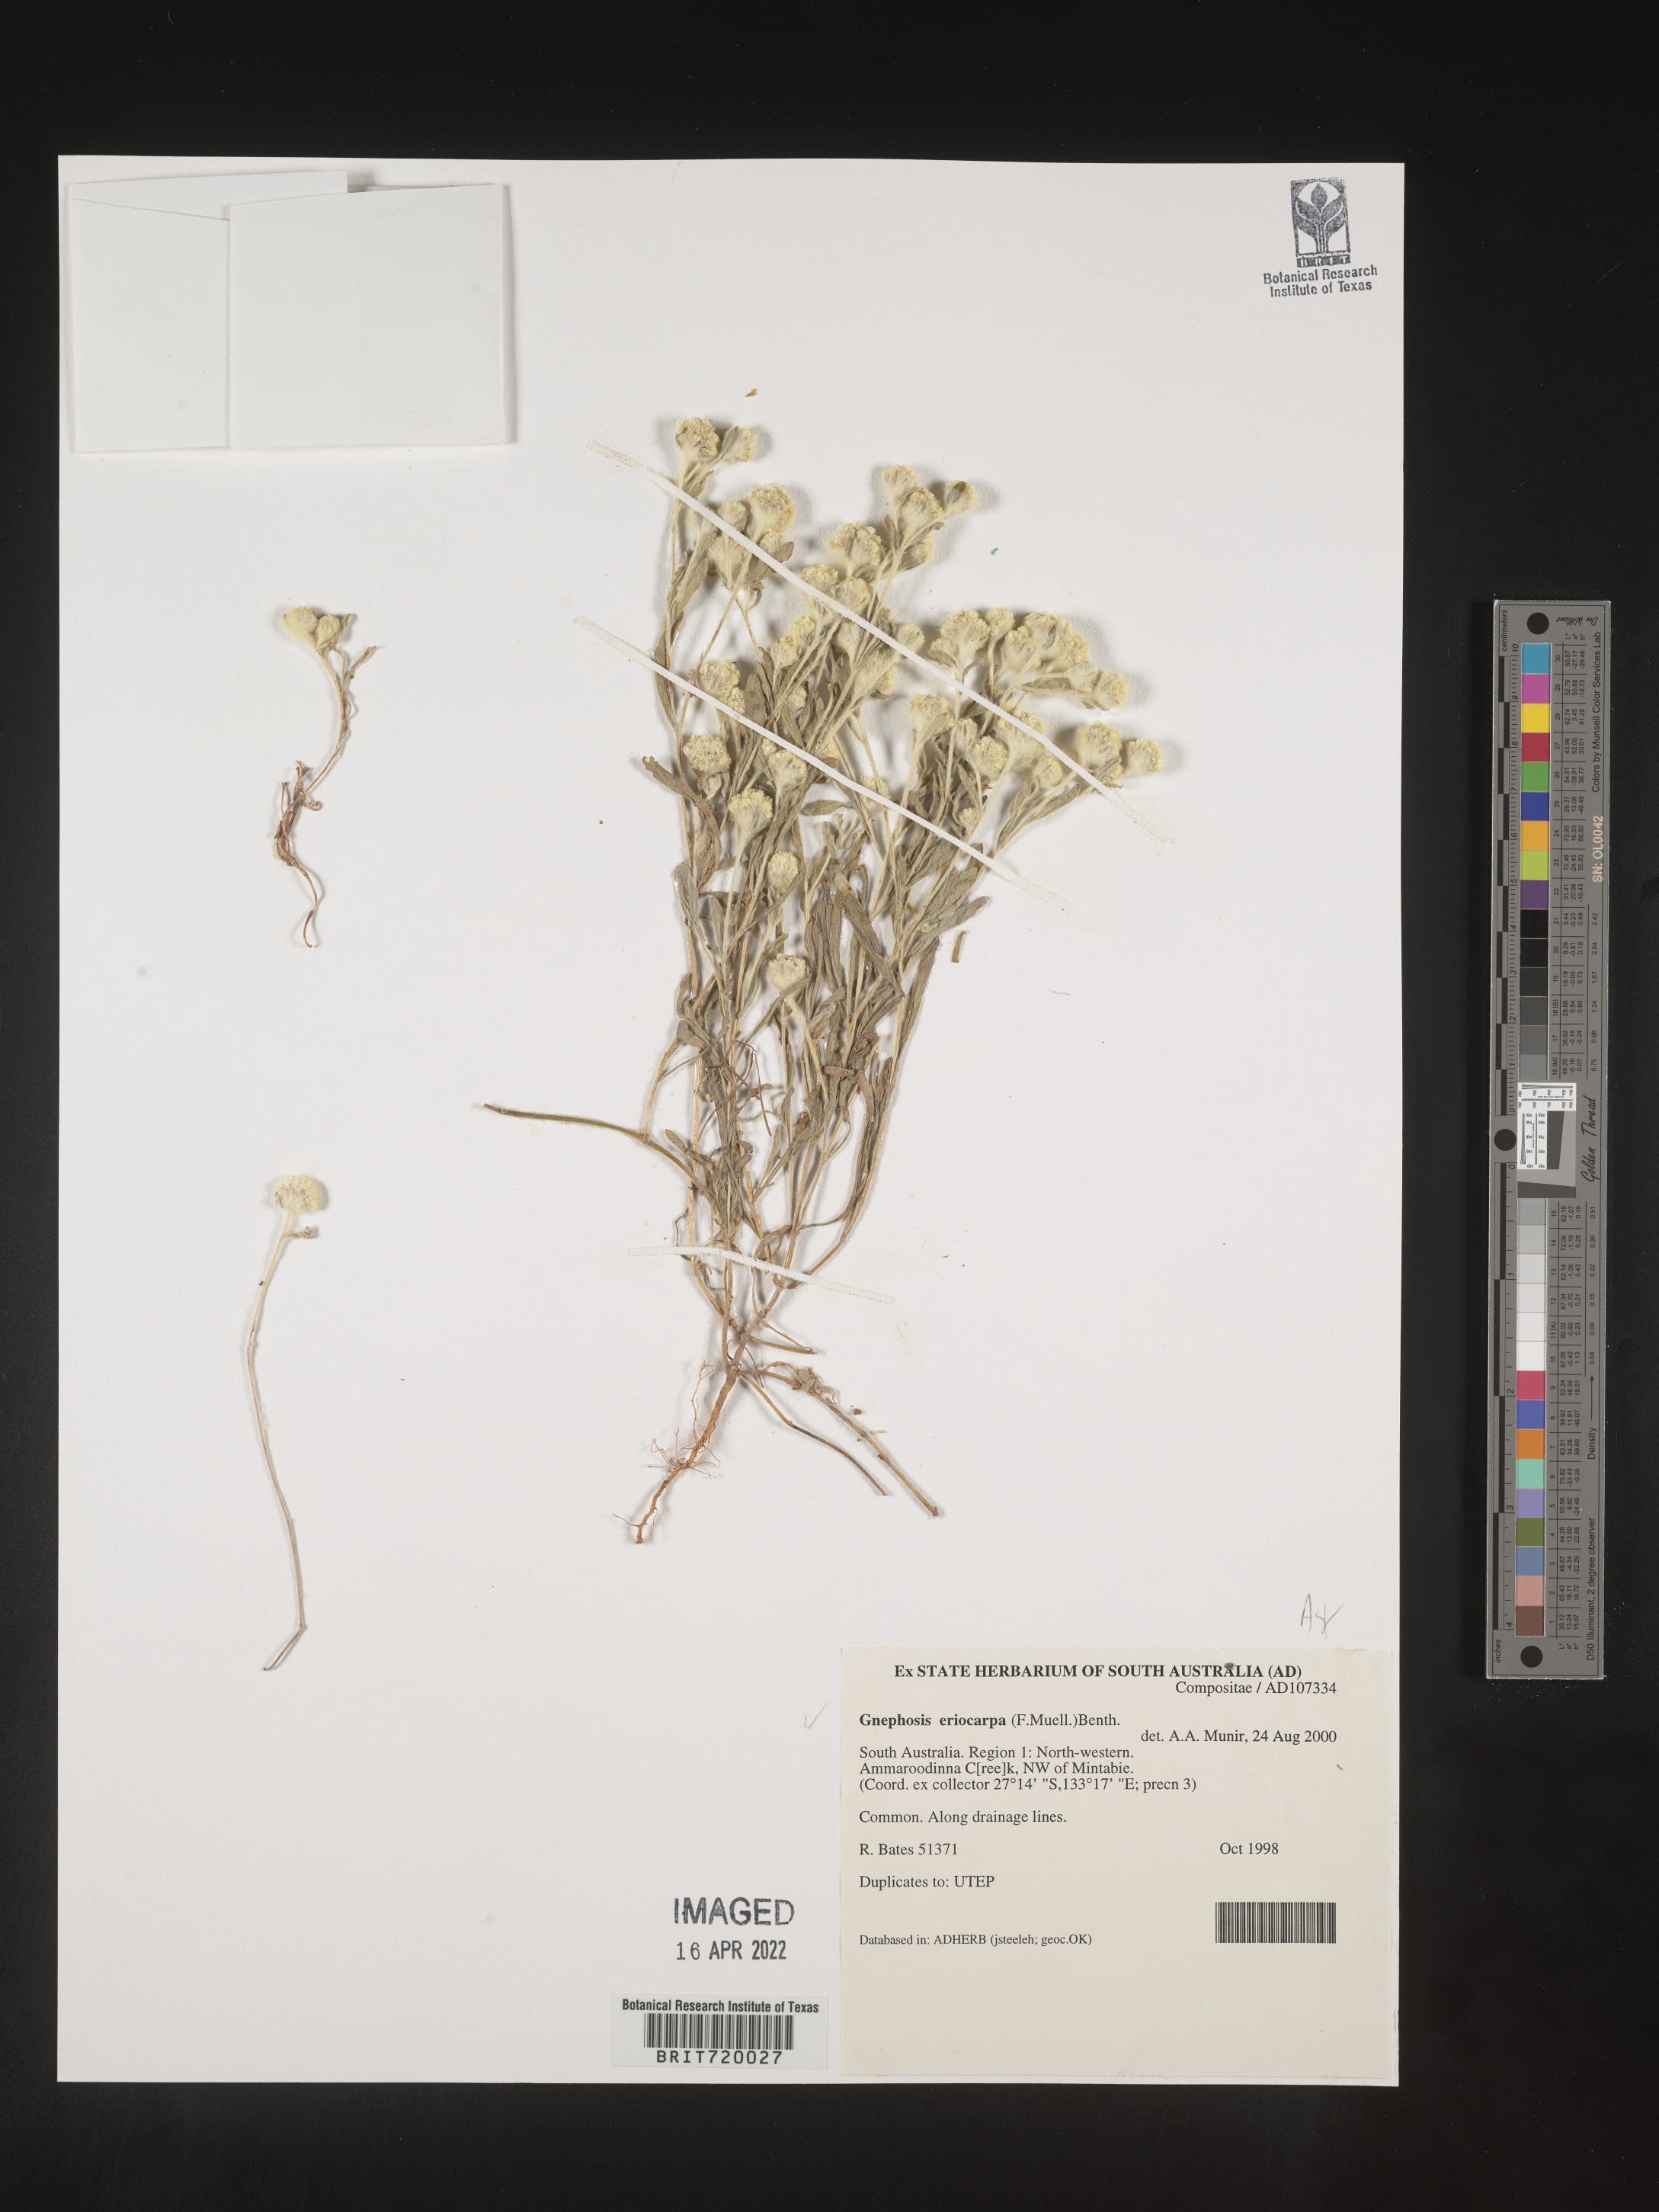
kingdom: Plantae
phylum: Tracheophyta
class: Magnoliopsida
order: Asterales
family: Asteraceae
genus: Gnephosis
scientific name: Gnephosis
